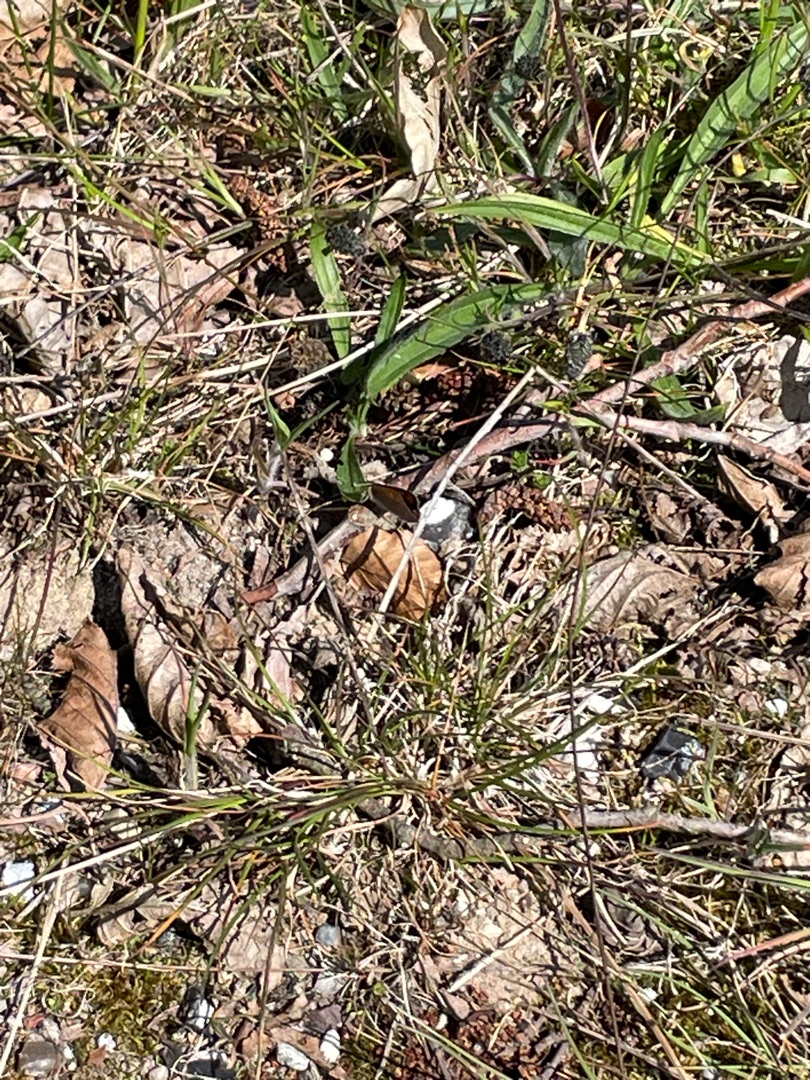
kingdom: Animalia
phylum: Arthropoda
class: Insecta
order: Lepidoptera
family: Lycaenidae
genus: Lycaena
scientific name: Lycaena phlaeas
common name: Lille ildfugl
